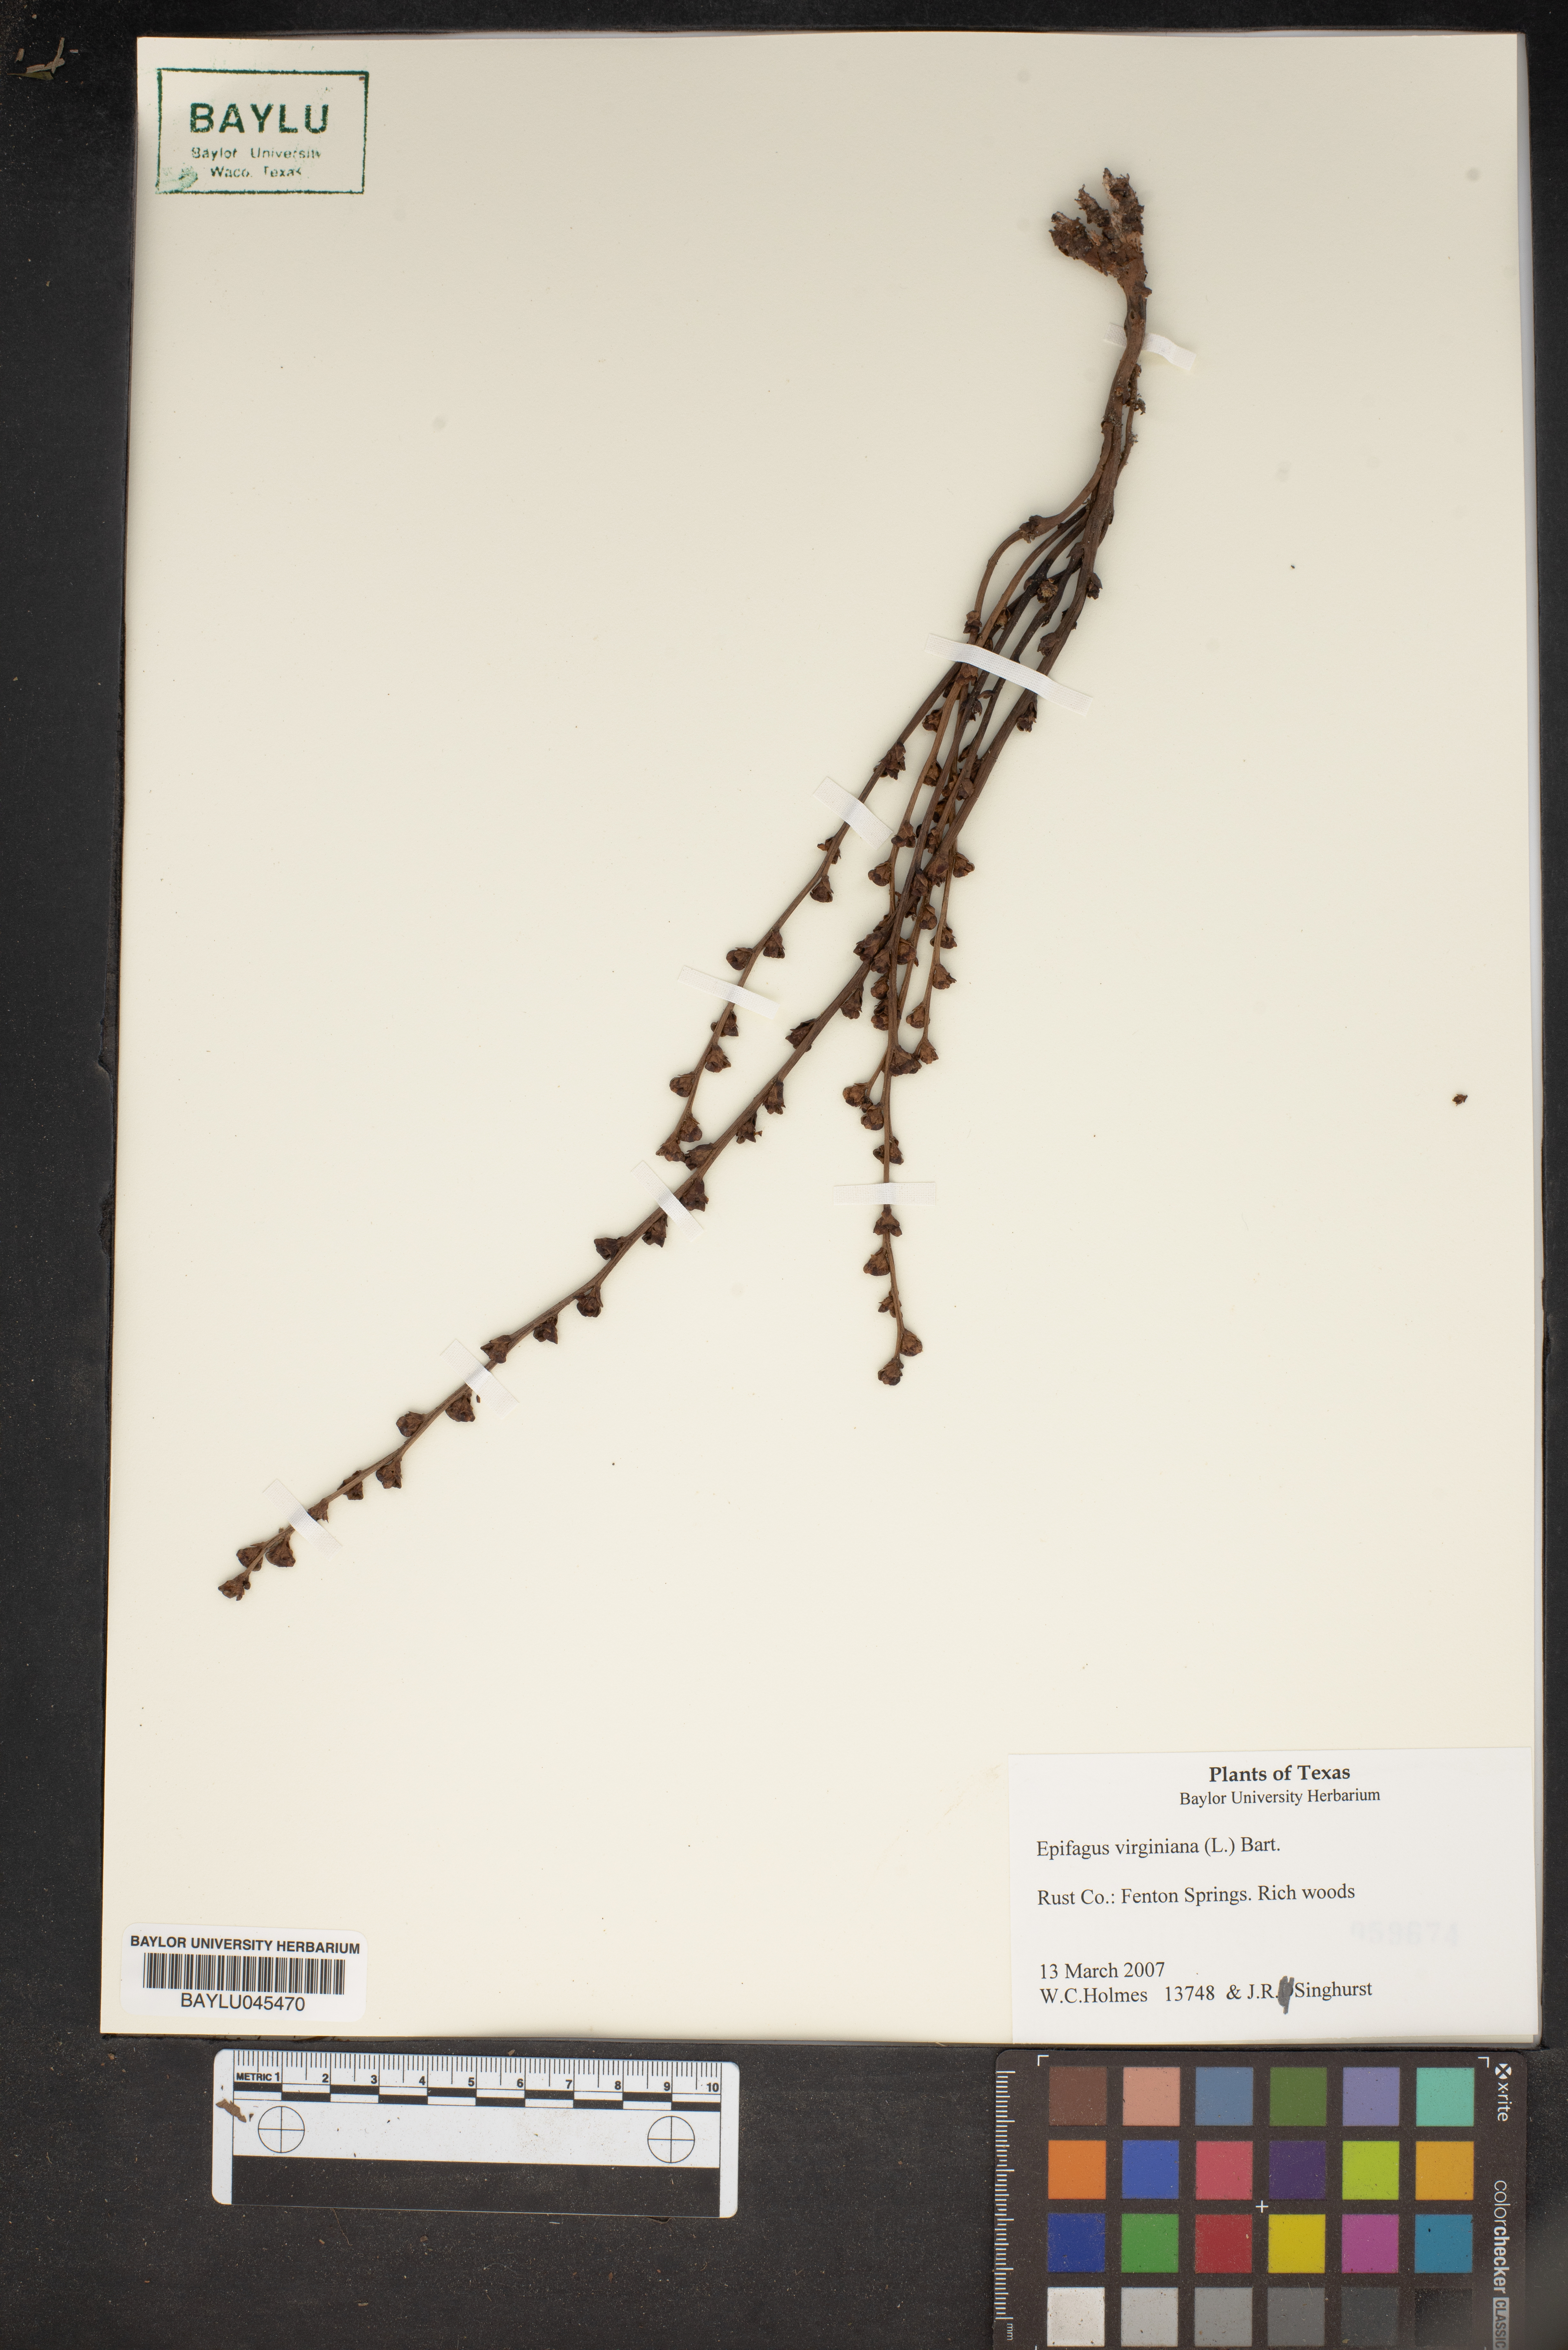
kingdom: Plantae
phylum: Tracheophyta
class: Magnoliopsida
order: Lamiales
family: Orobanchaceae
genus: Epifagus
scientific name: Epifagus virginiana
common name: Beechdrops
